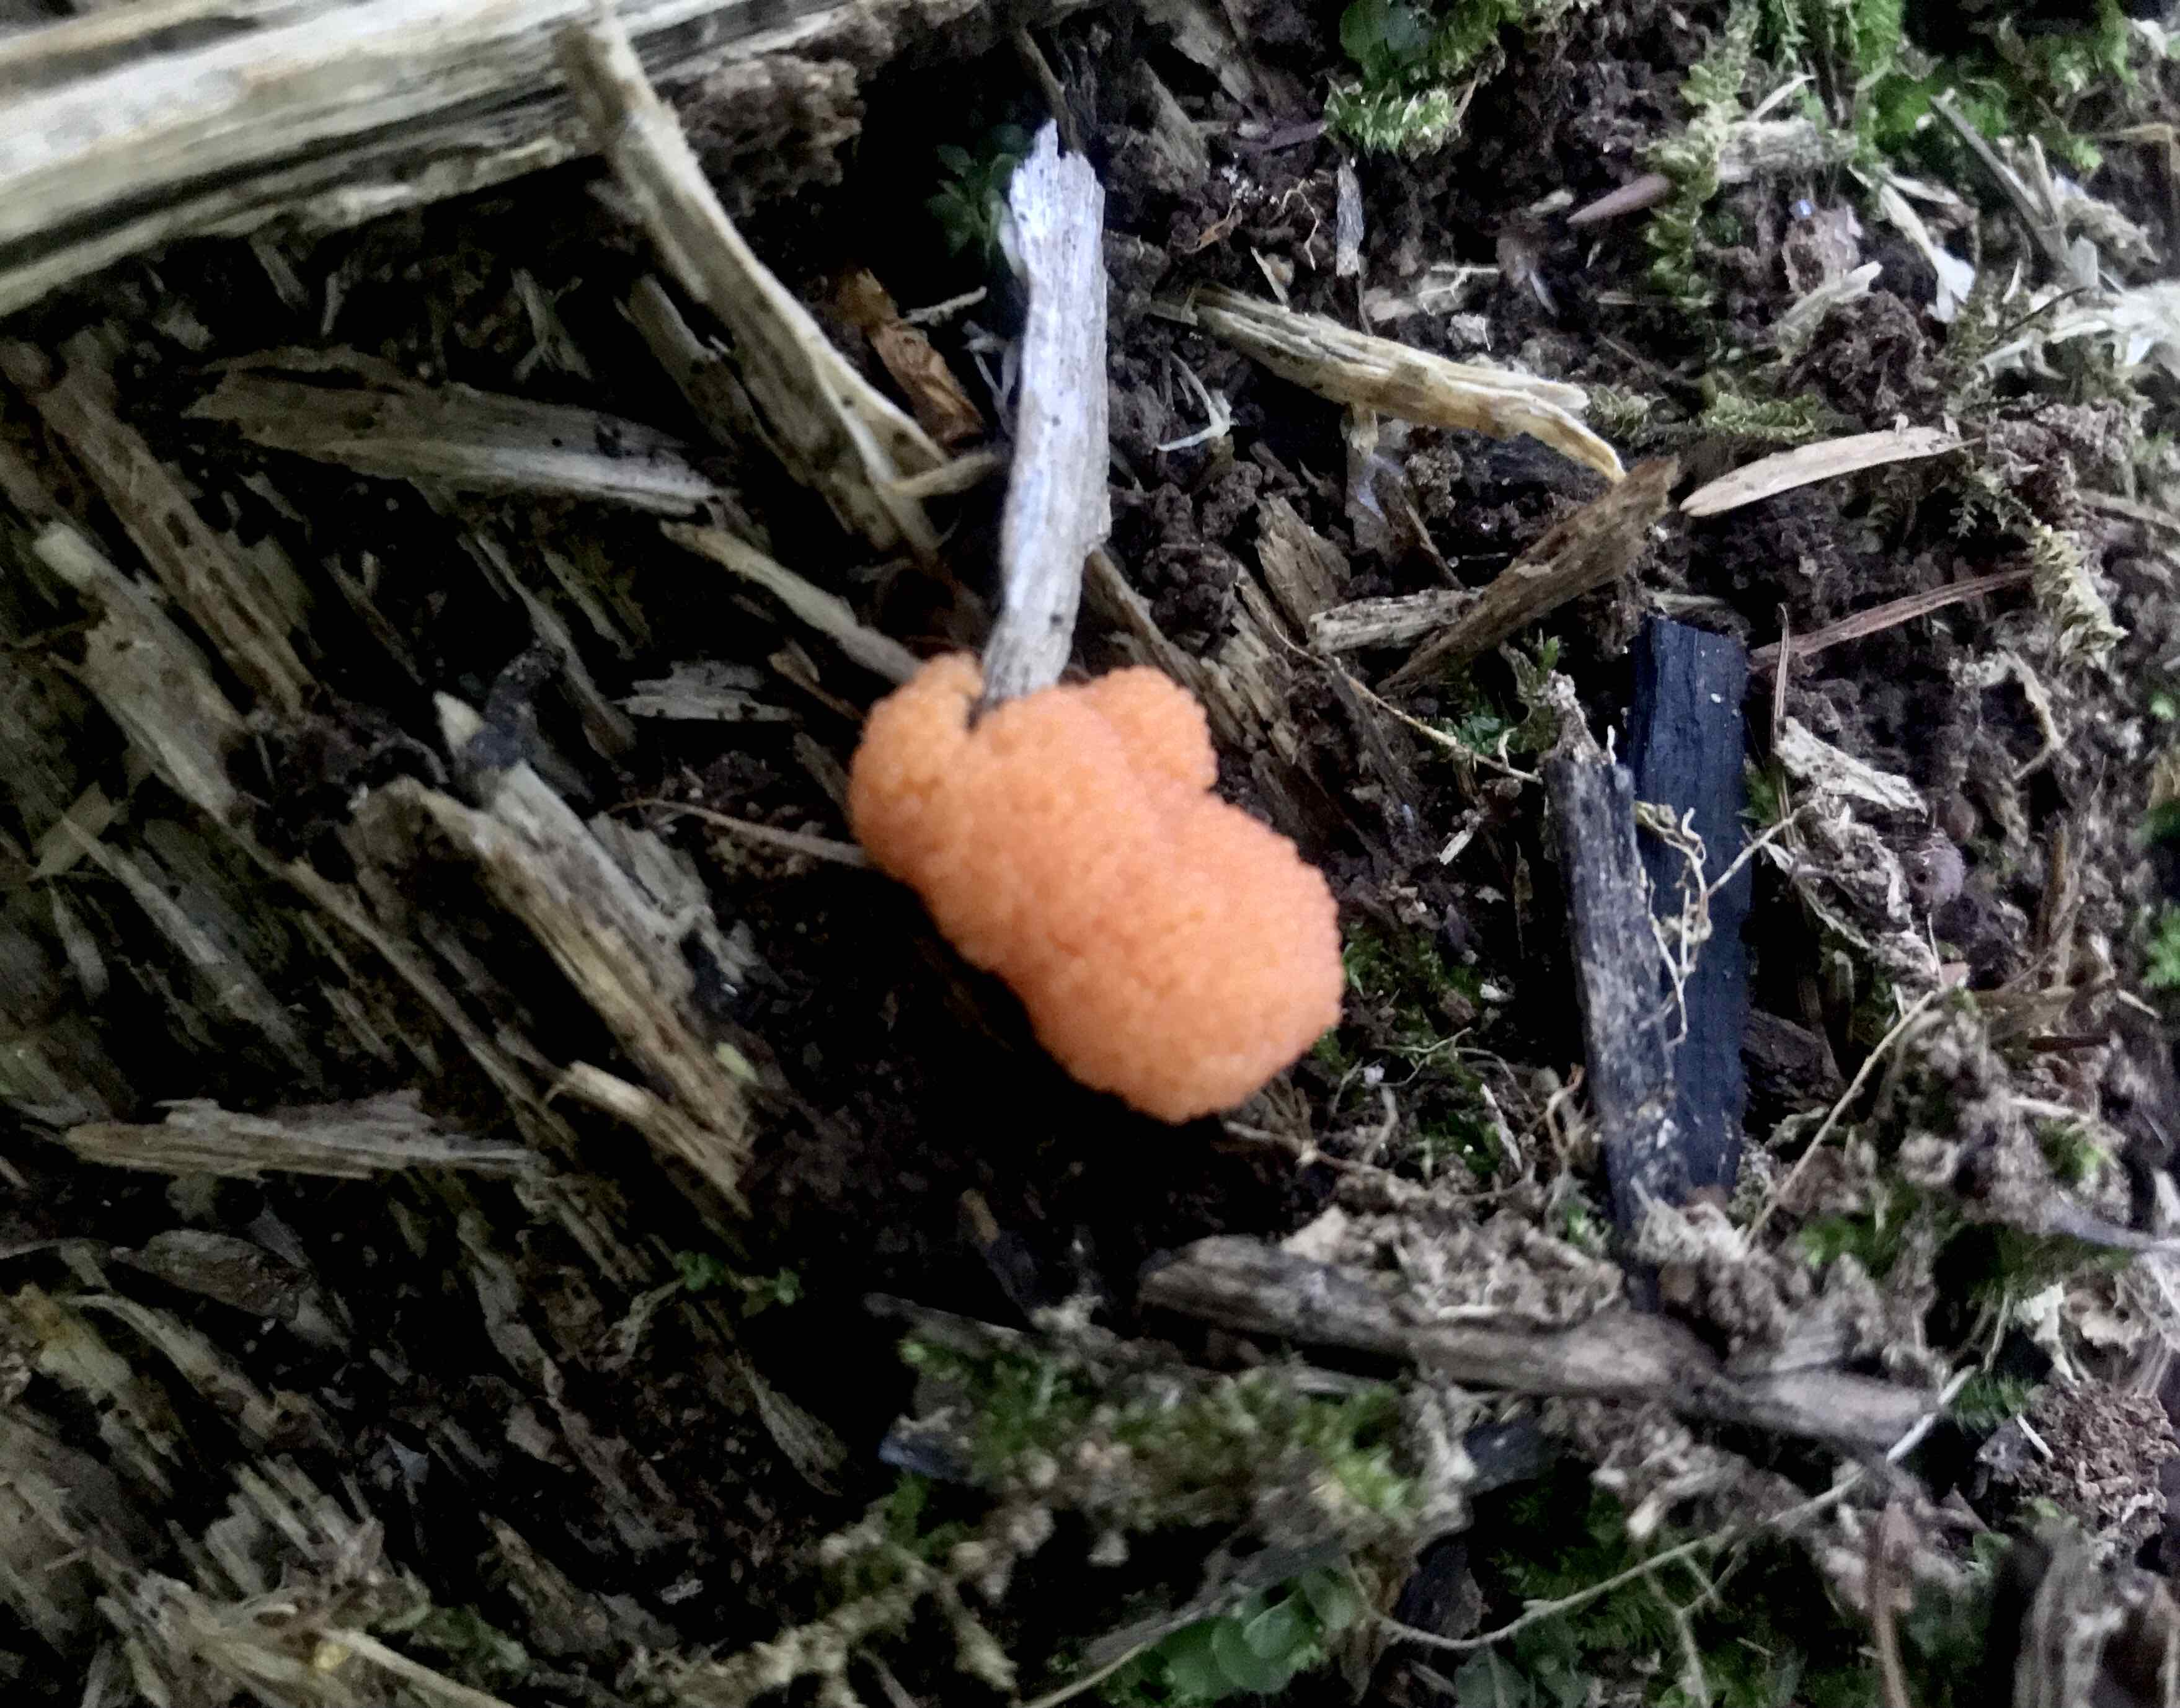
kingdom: Protozoa
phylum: Mycetozoa
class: Myxomycetes
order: Cribrariales
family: Tubiferaceae
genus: Tubifera
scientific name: Tubifera ferruginosa
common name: kanel-støvrør
